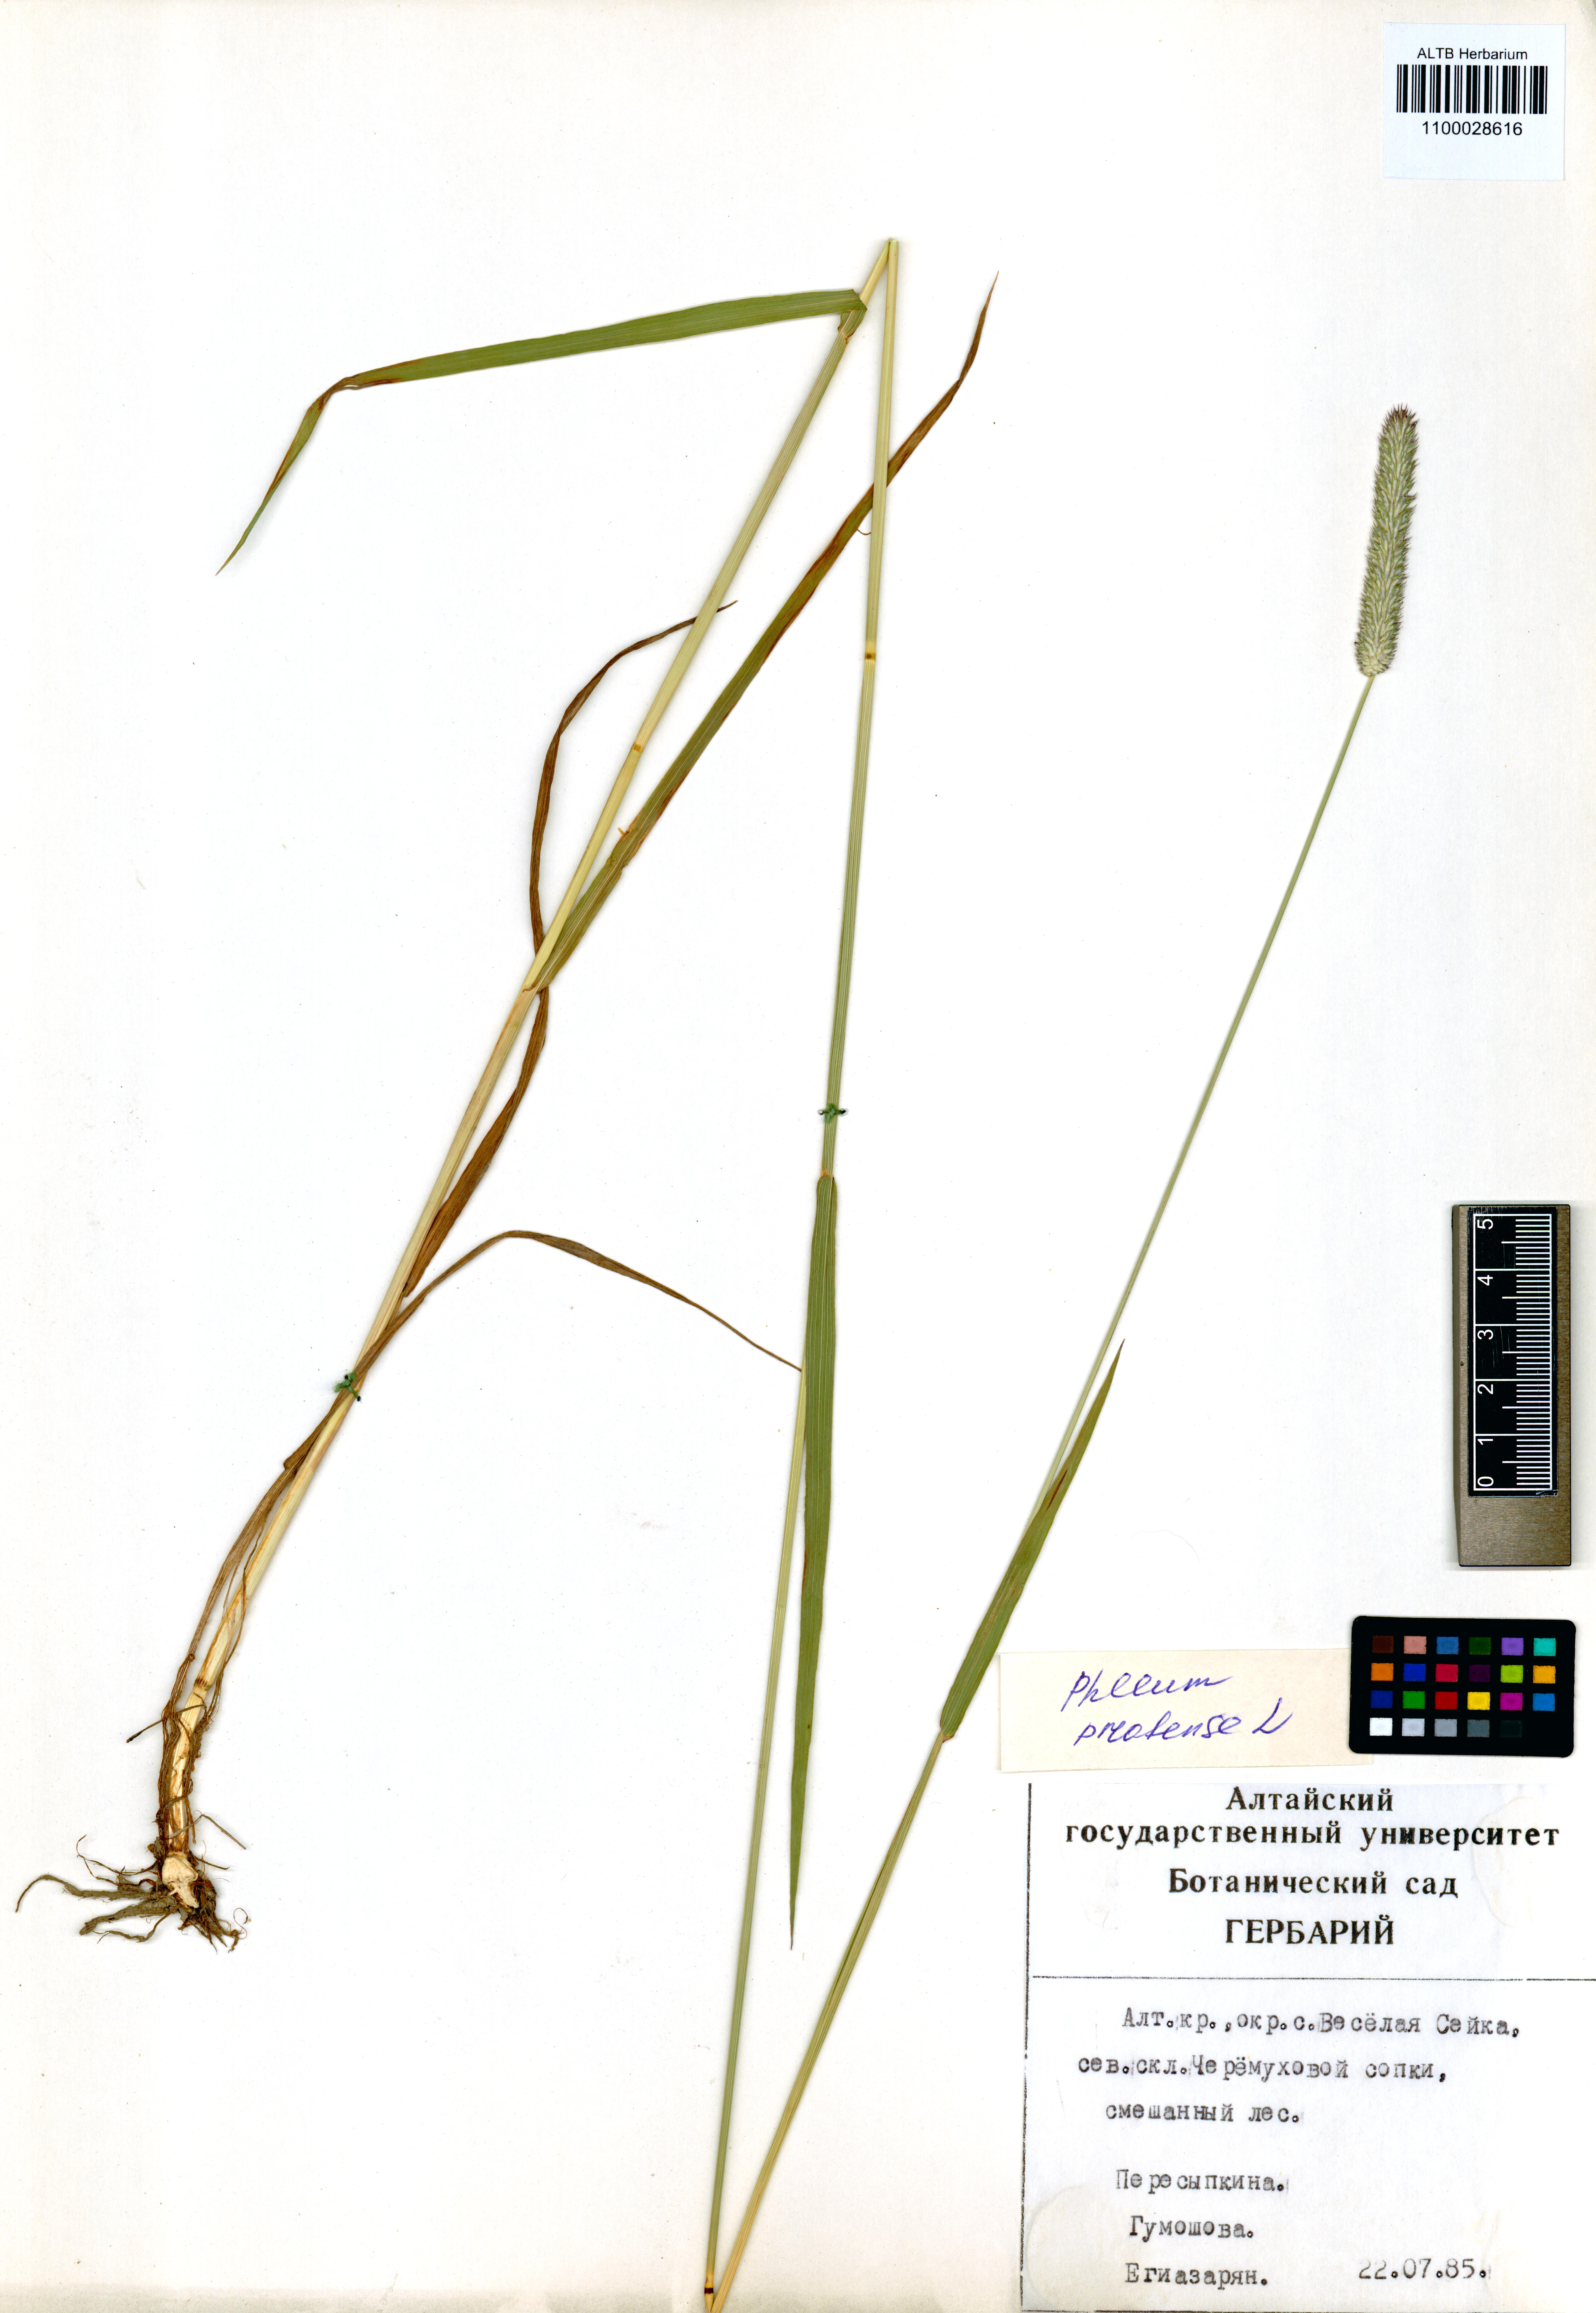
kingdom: Plantae
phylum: Tracheophyta
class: Liliopsida
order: Poales
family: Poaceae
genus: Phleum
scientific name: Phleum pratense
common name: Timothy grass
